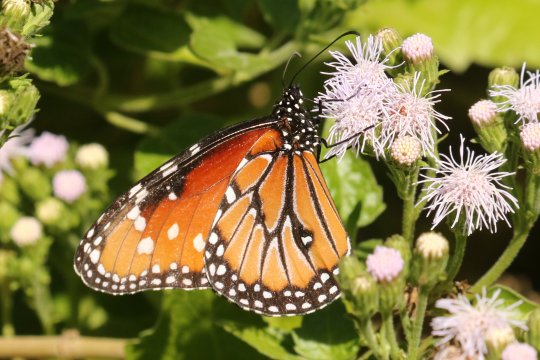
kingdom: Animalia
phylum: Arthropoda
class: Insecta
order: Lepidoptera
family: Nymphalidae
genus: Danaus
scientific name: Danaus gilippus
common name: Queen
